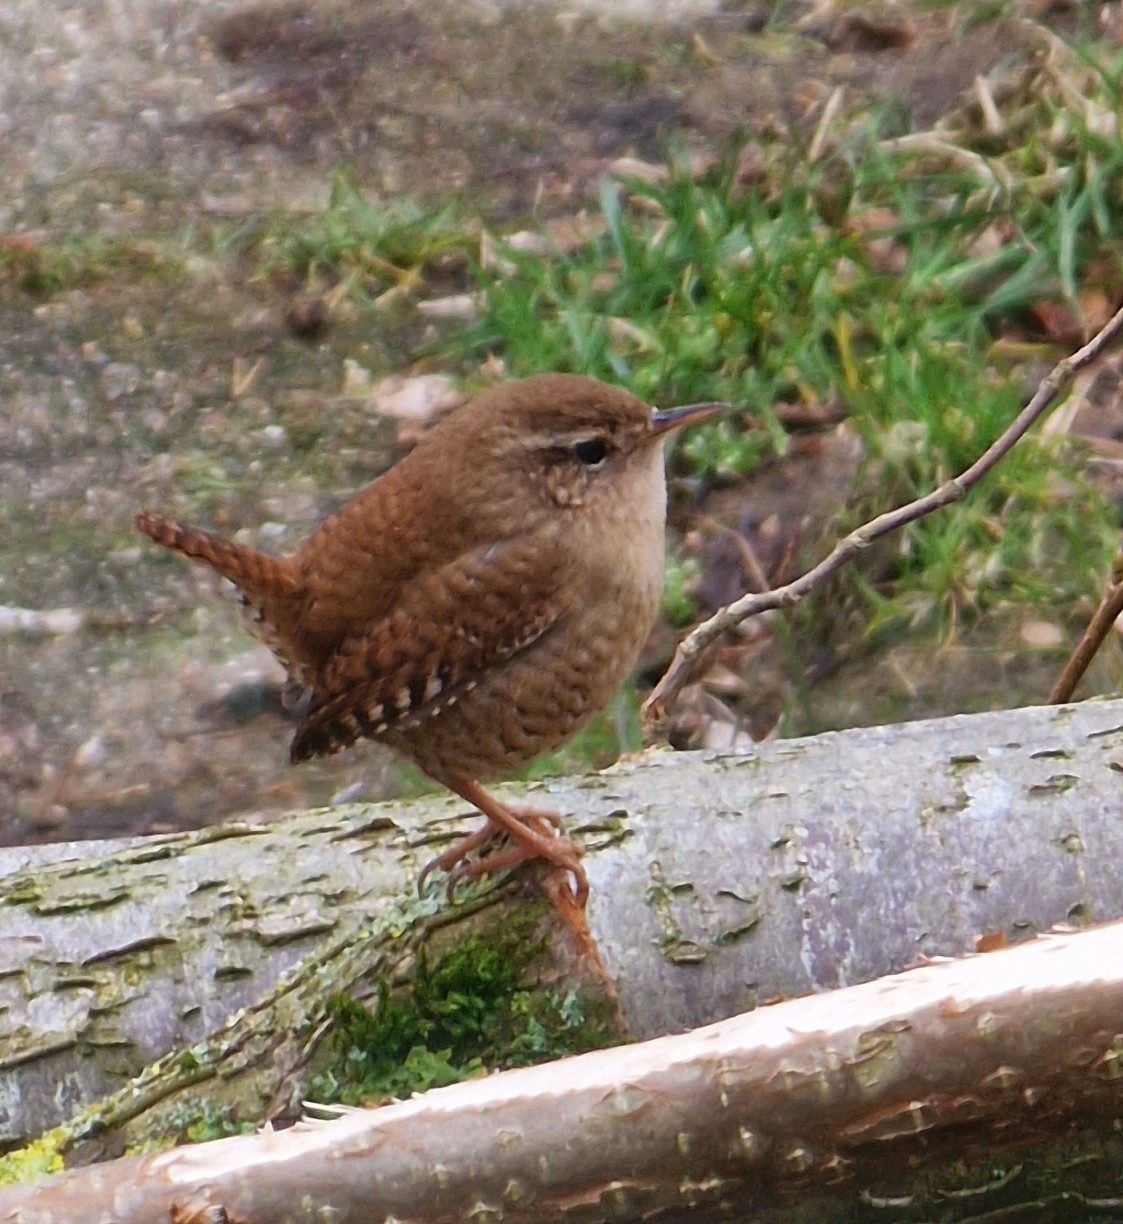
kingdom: Animalia
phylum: Chordata
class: Aves
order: Passeriformes
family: Troglodytidae
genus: Troglodytes
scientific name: Troglodytes troglodytes
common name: Gærdesmutte
